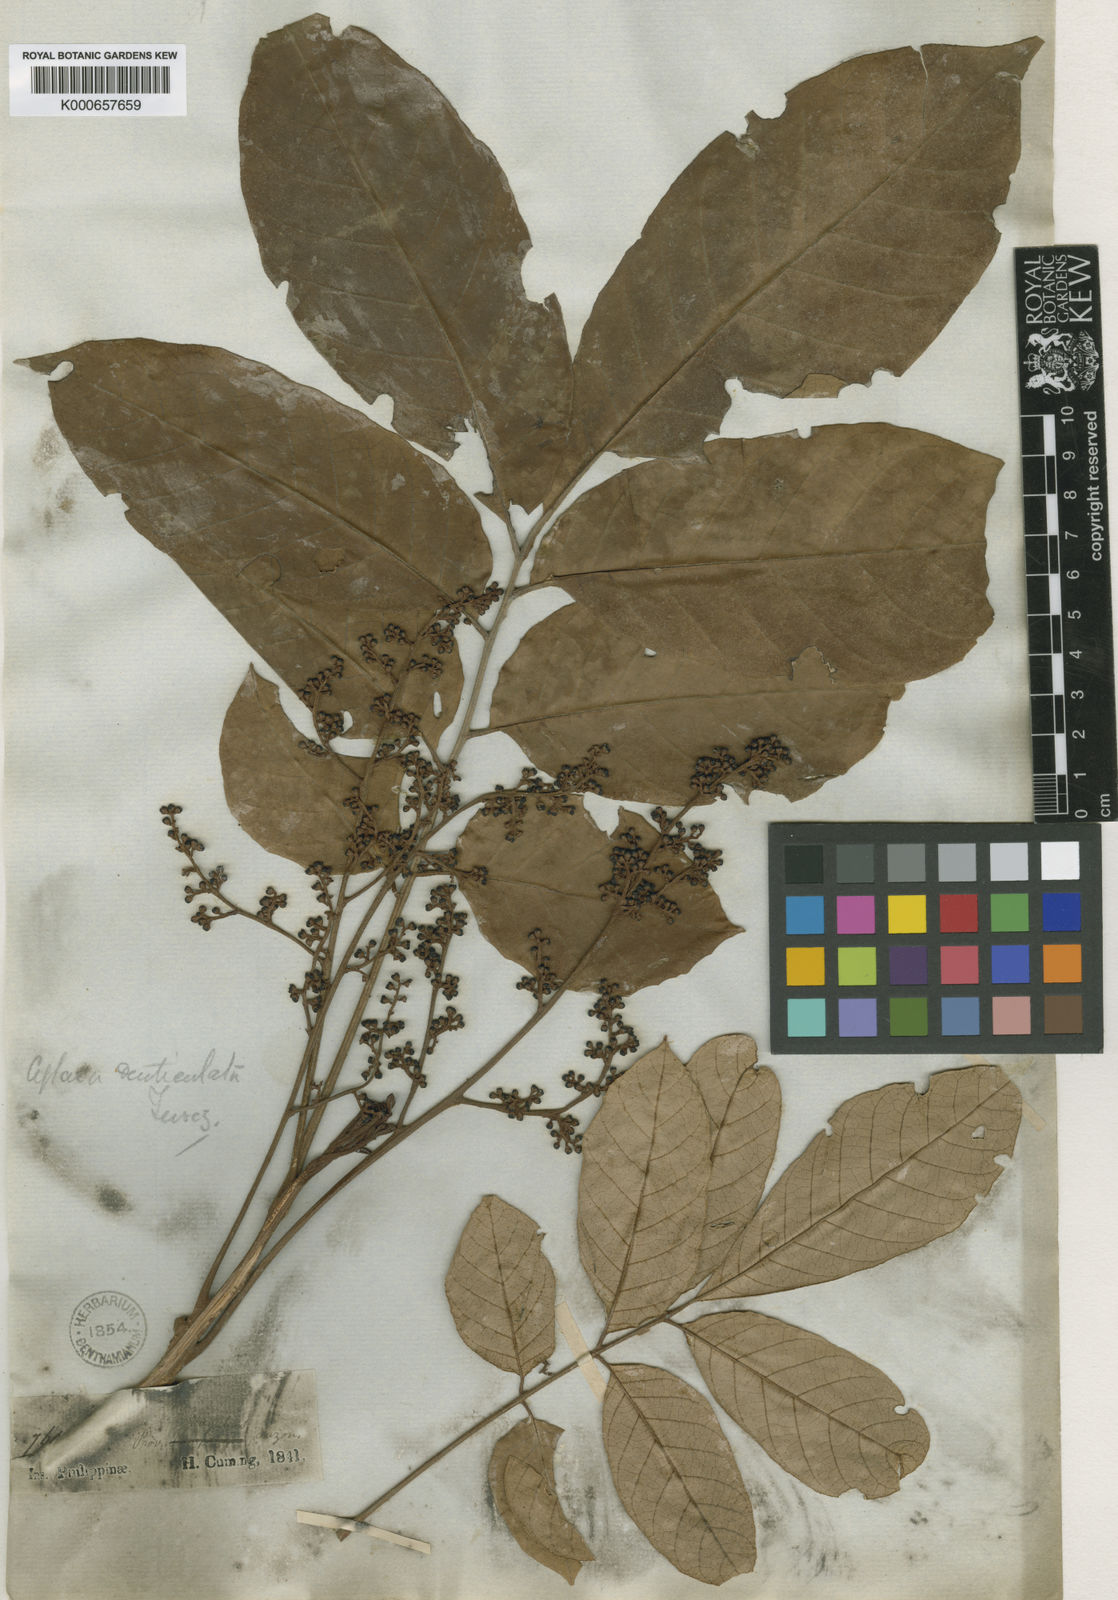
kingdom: Plantae
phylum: Tracheophyta
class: Magnoliopsida
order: Sapindales
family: Meliaceae
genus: Aglaia
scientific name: Aglaia rimosa
